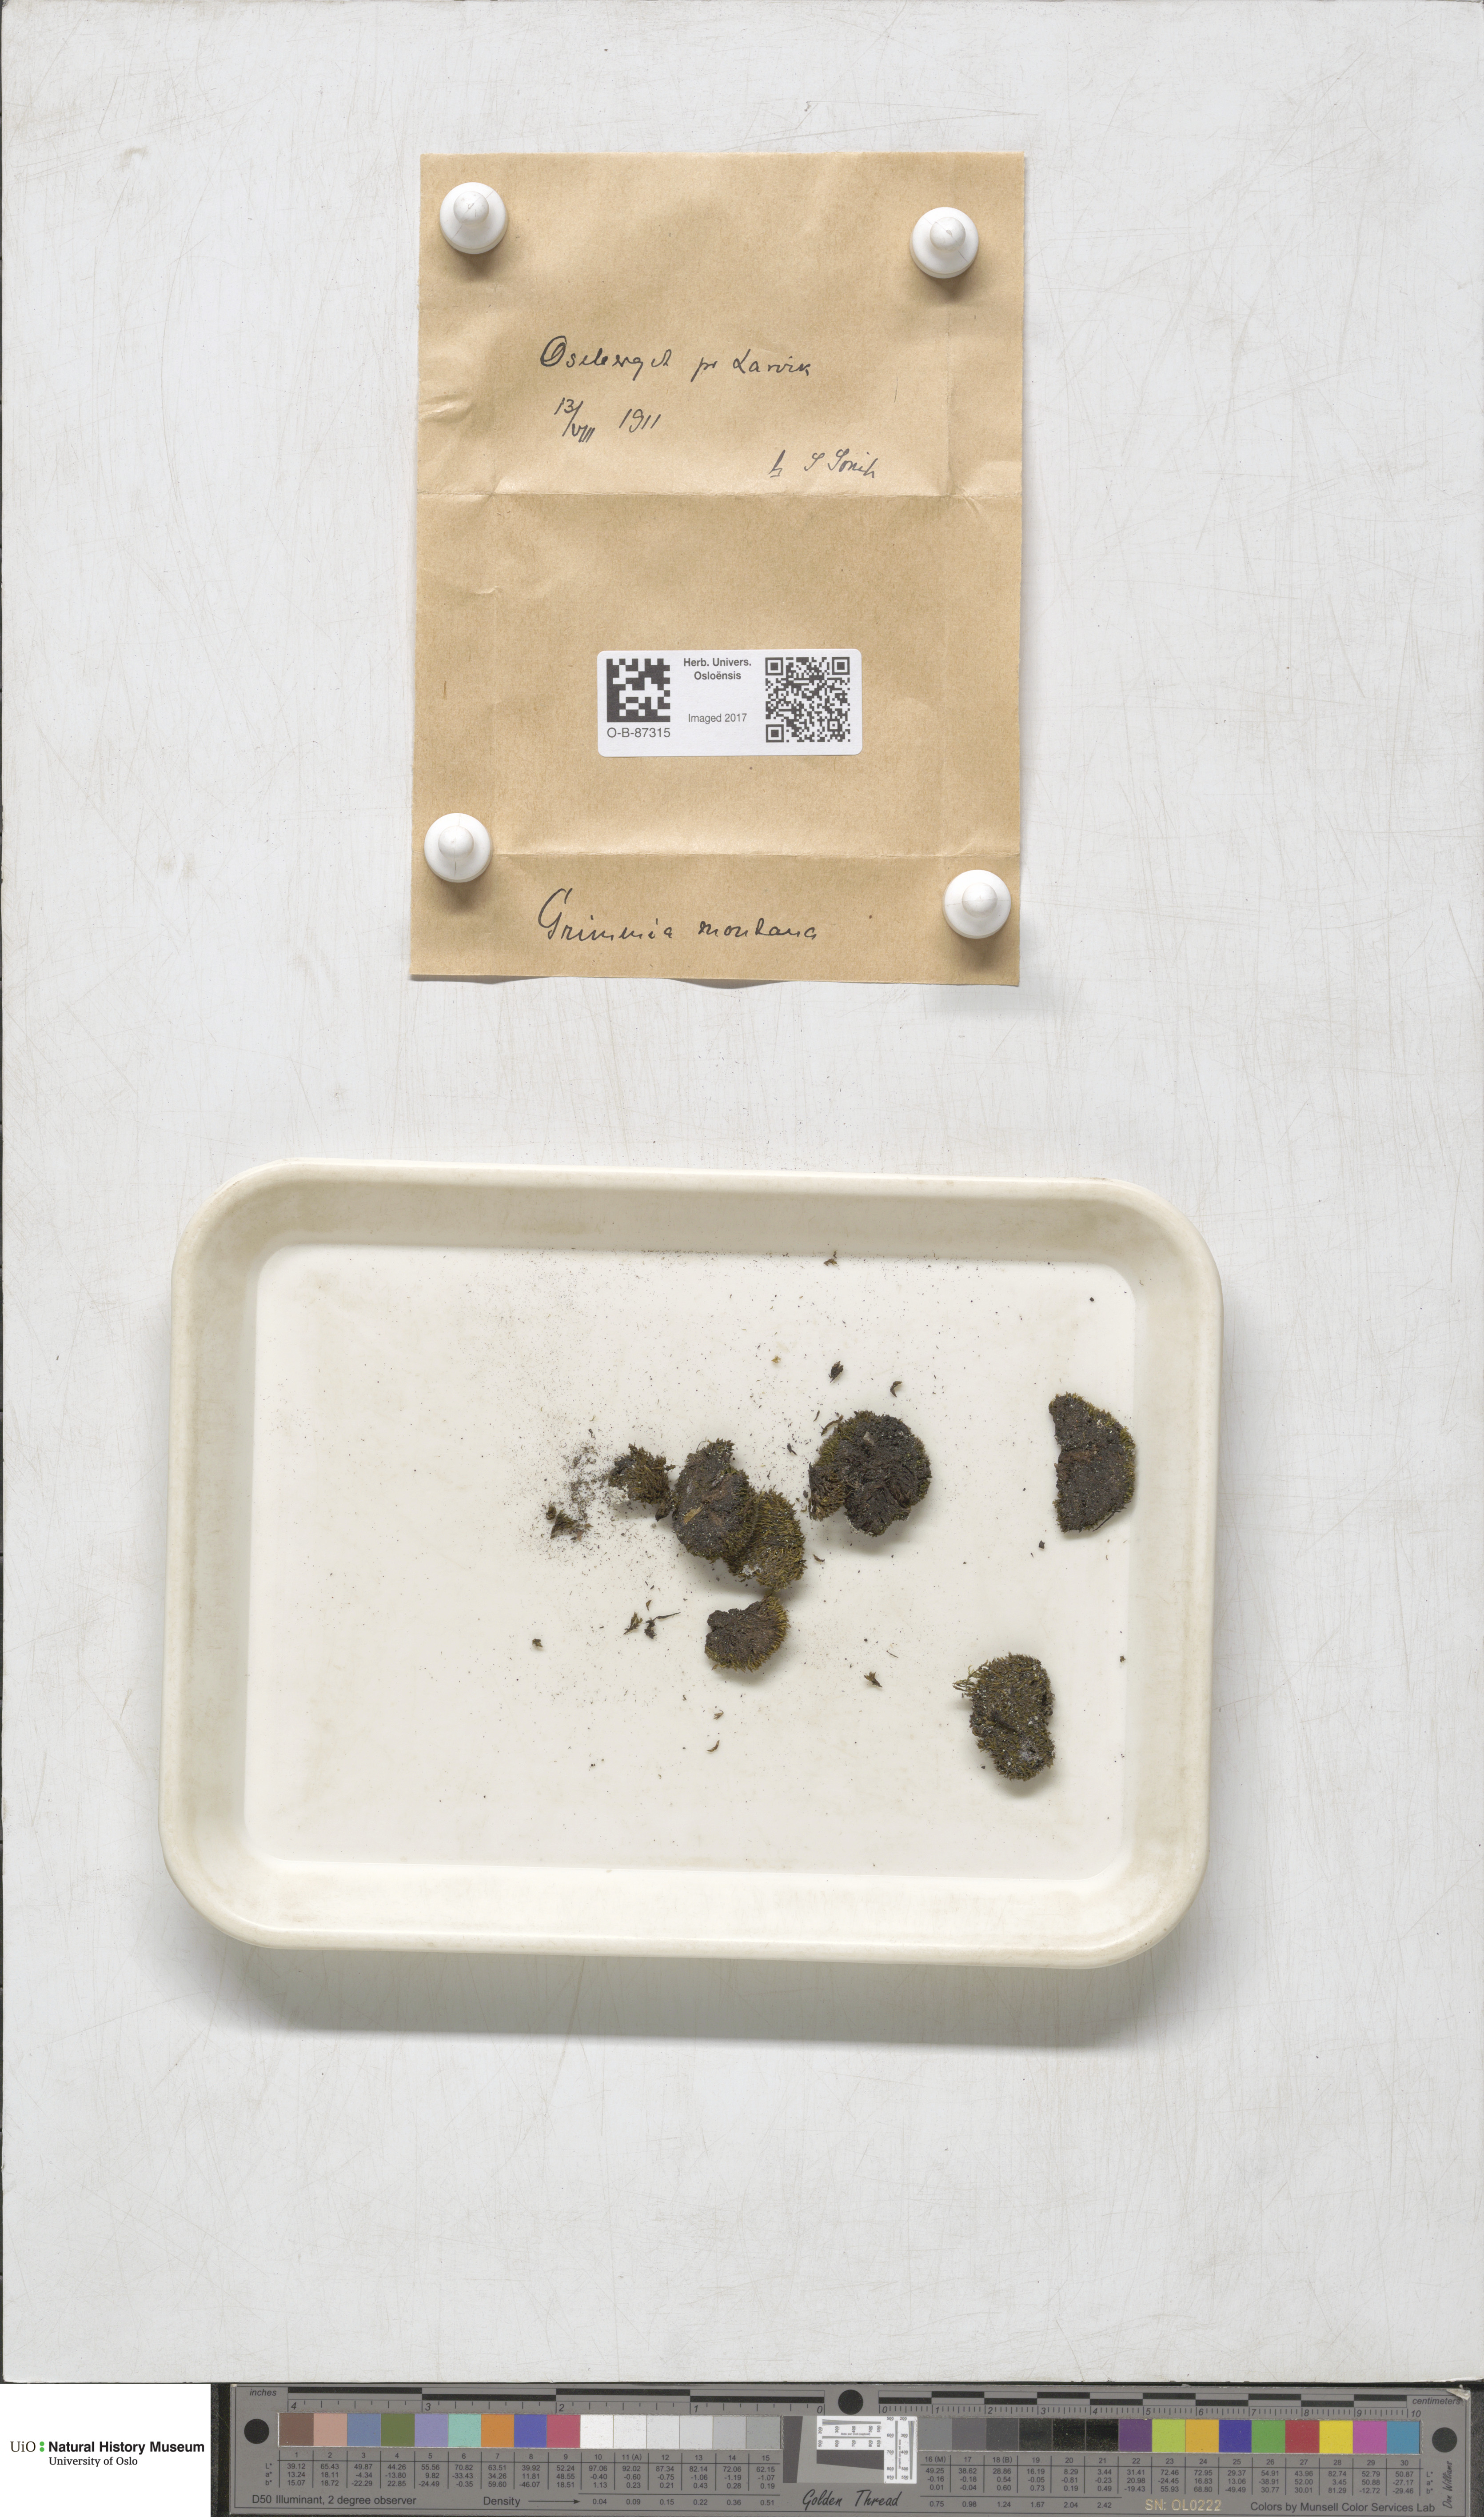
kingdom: Plantae
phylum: Bryophyta
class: Bryopsida
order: Grimmiales
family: Grimmiaceae
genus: Grimmia
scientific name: Grimmia montana
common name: Sun grimmia
